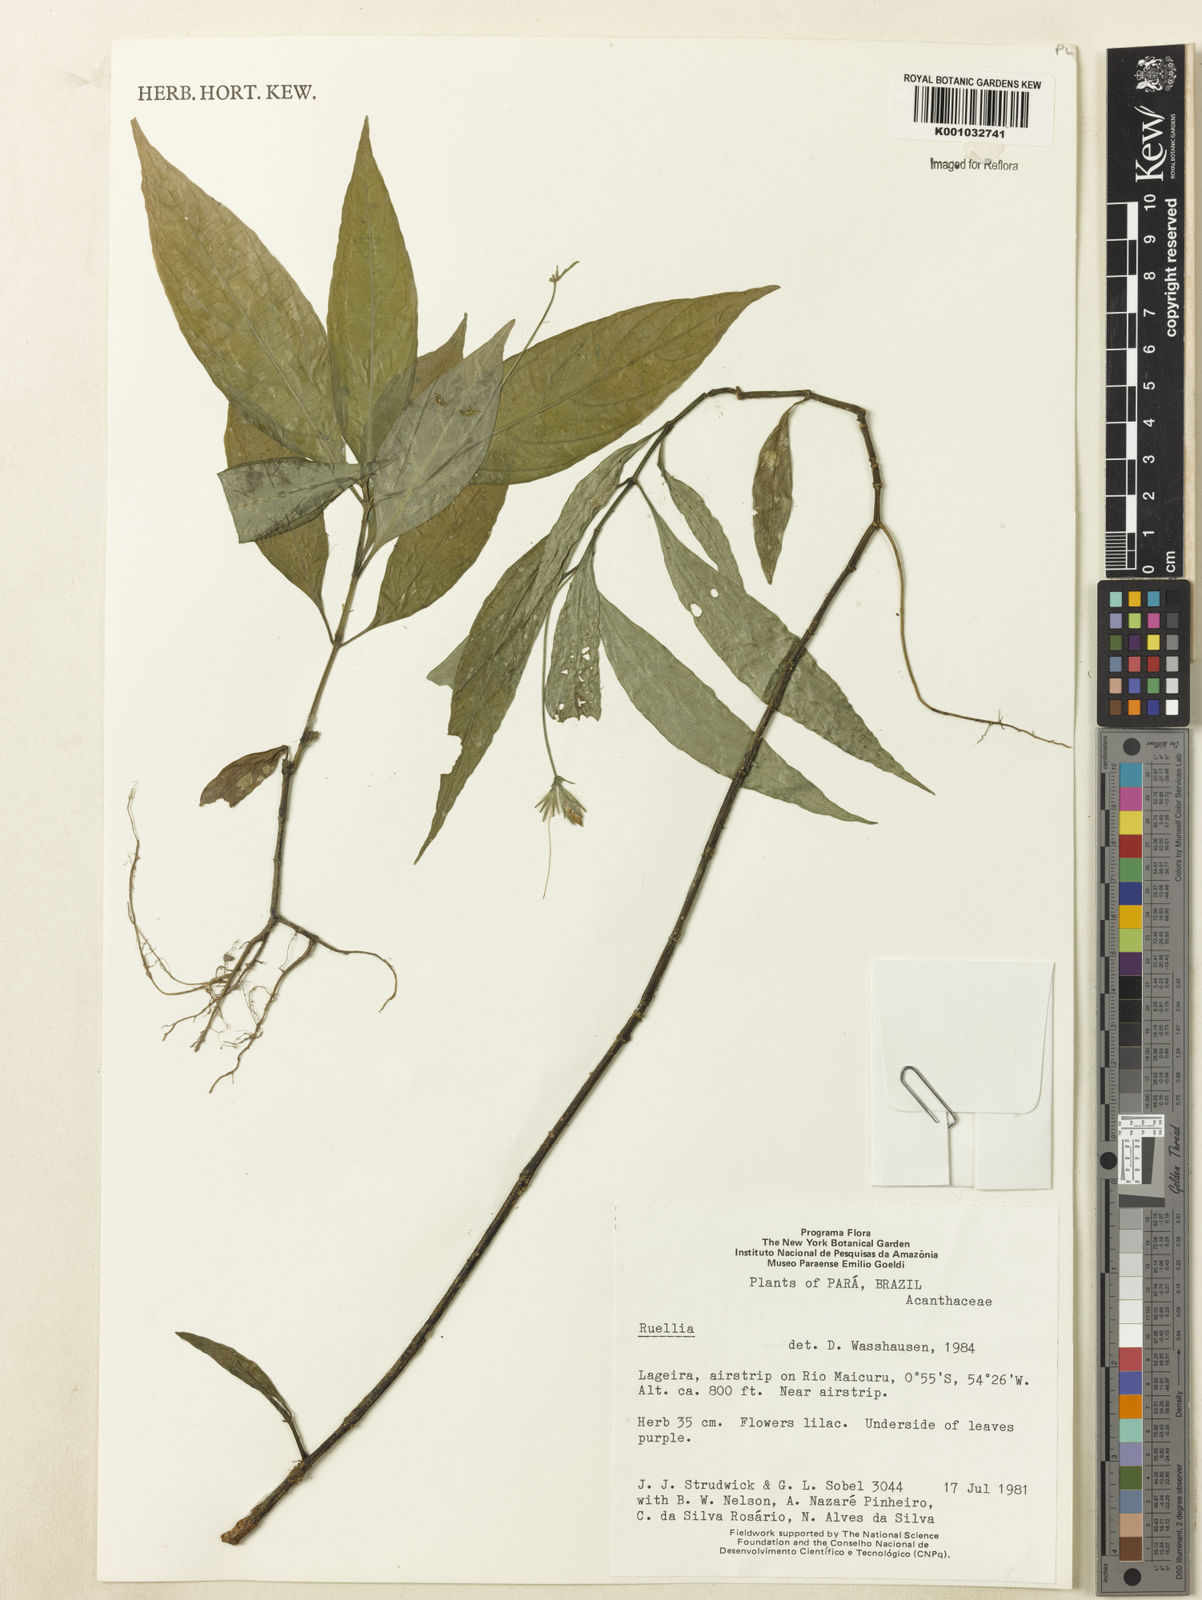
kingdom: Plantae
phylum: Tracheophyta
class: Magnoliopsida
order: Lamiales
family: Acanthaceae
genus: Ruellia
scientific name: Ruellia
